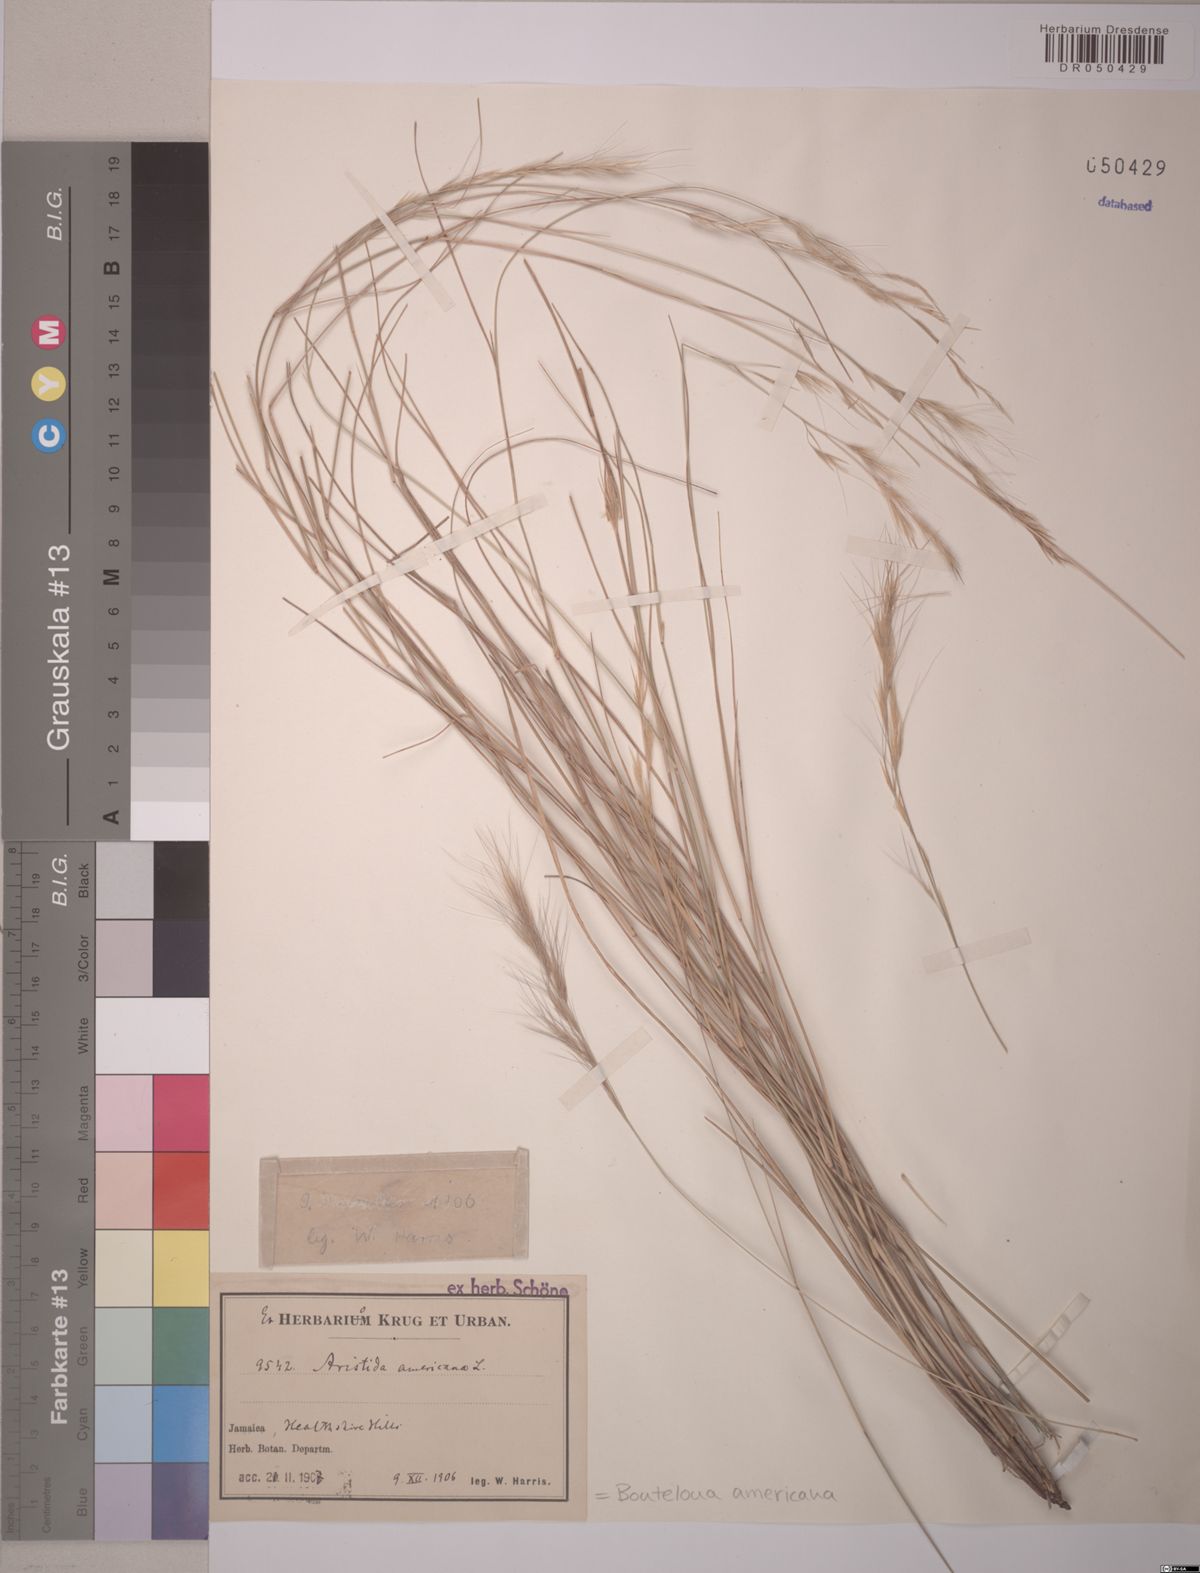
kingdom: Plantae
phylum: Tracheophyta
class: Liliopsida
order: Poales
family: Poaceae
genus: Bouteloua
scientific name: Bouteloua americana
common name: Mule grass
